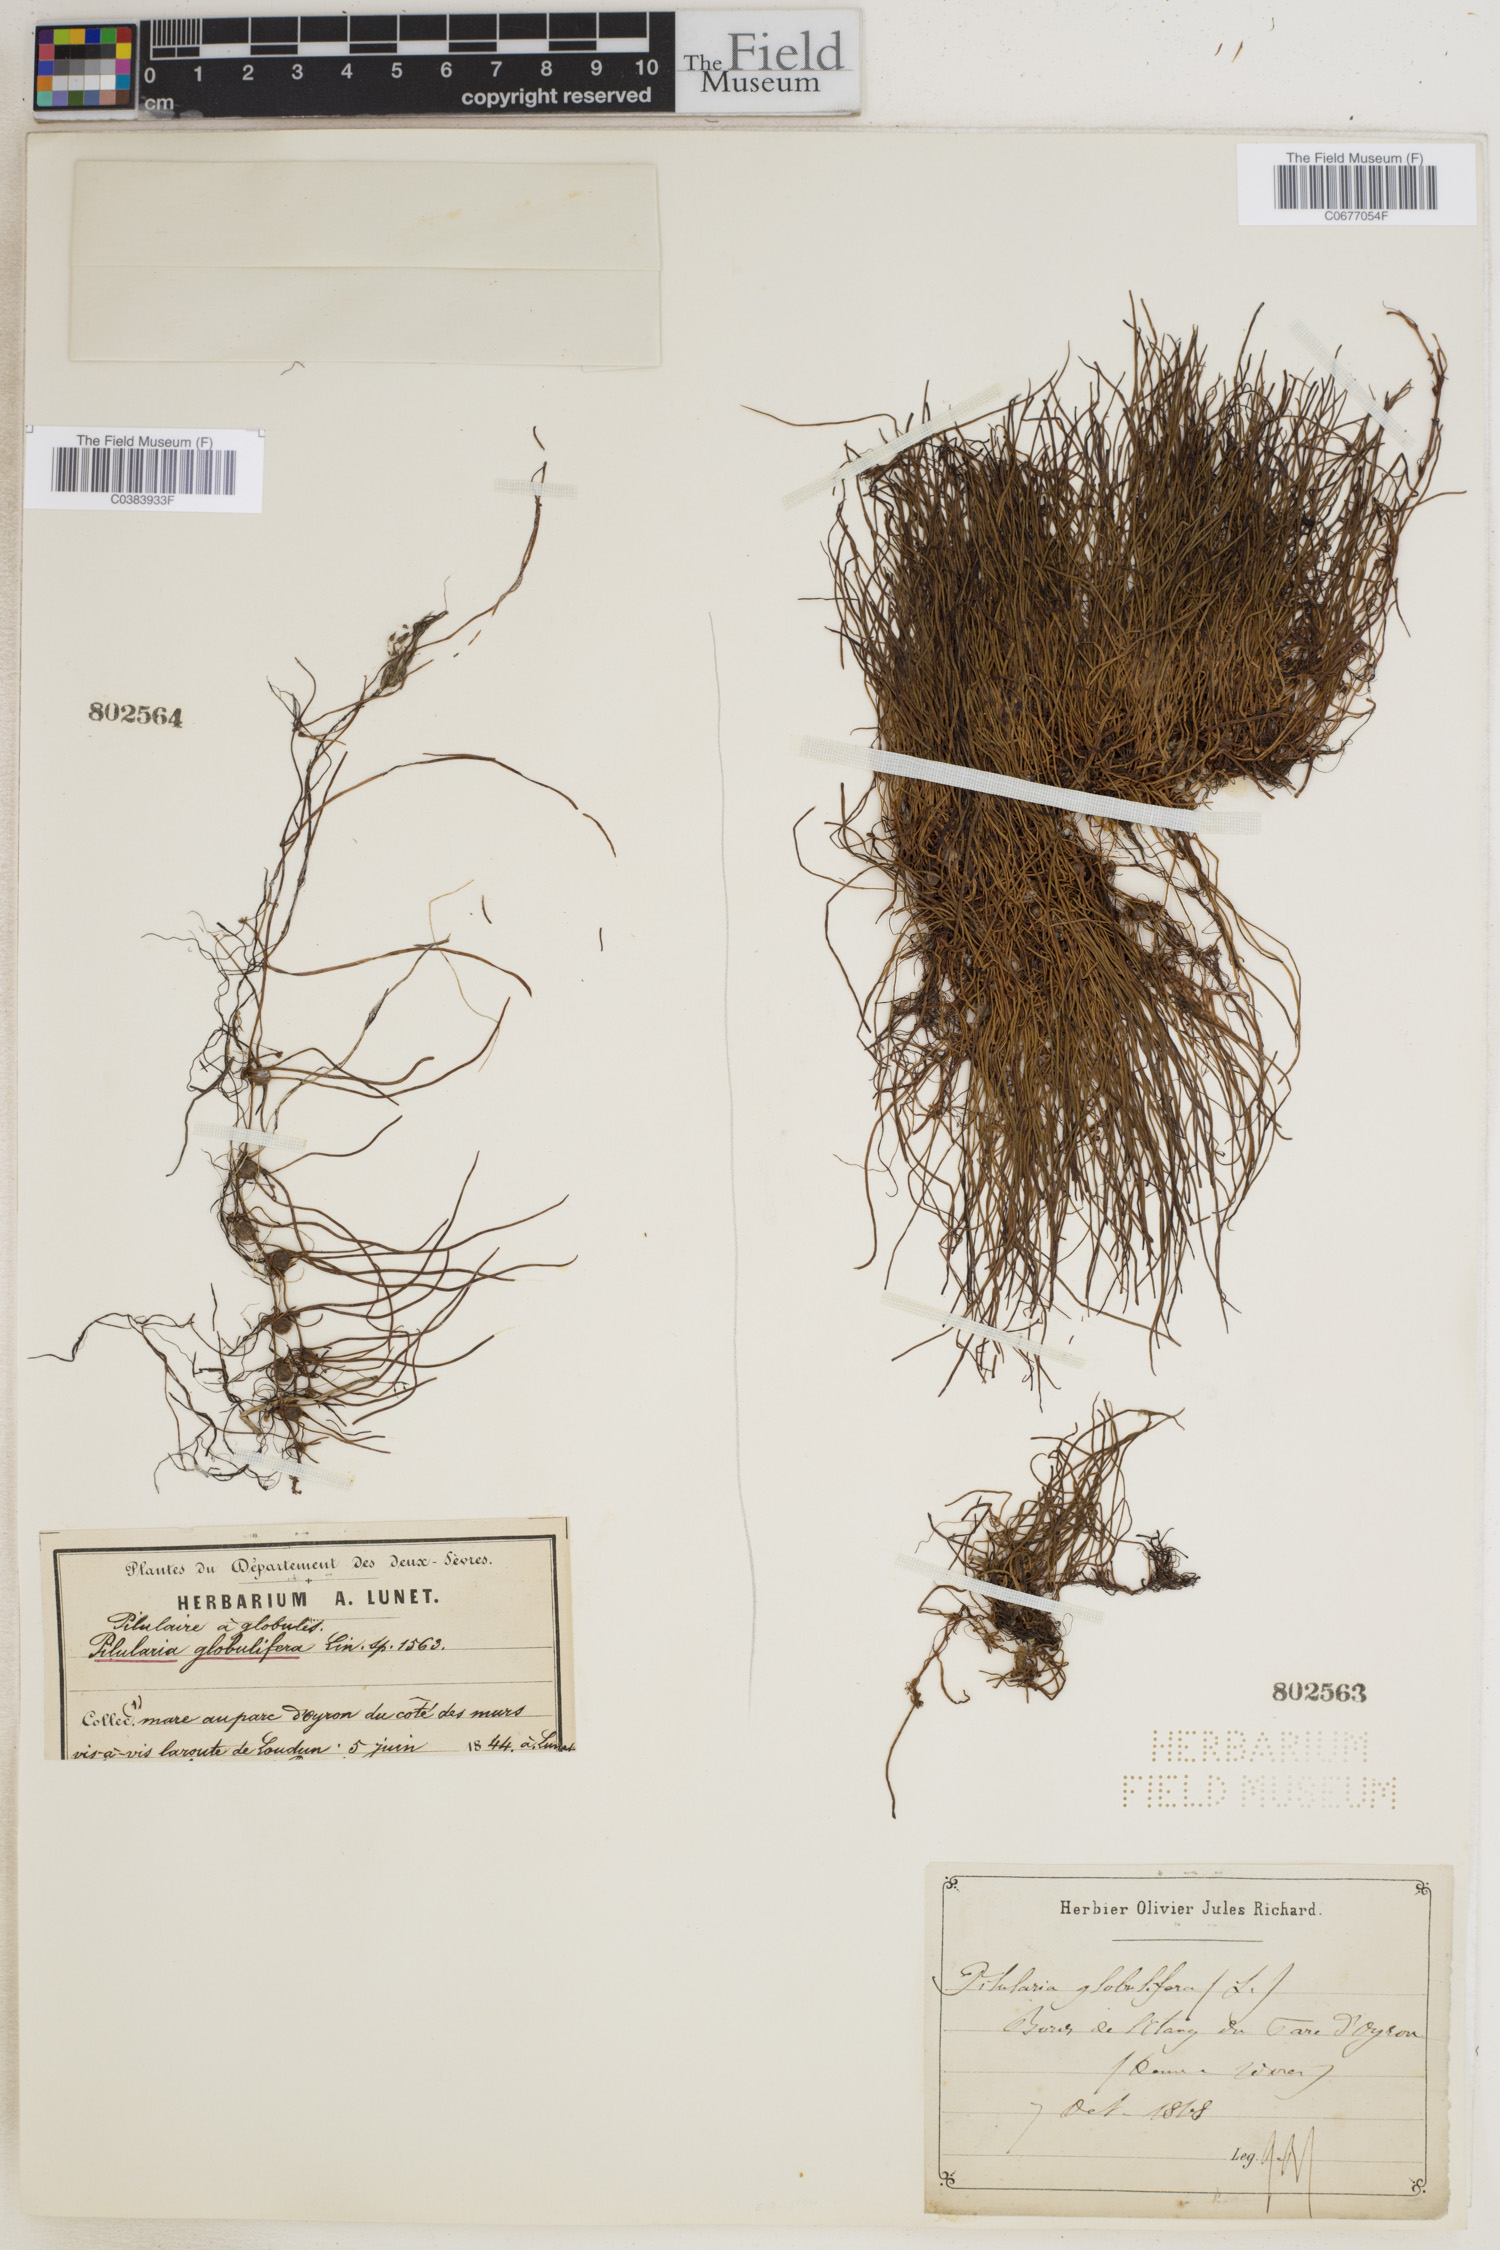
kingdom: Plantae
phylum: Tracheophyta
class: Polypodiopsida
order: Salviniales
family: Marsileaceae
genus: Pilularia
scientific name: Pilularia globulifera
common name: Pillwort
